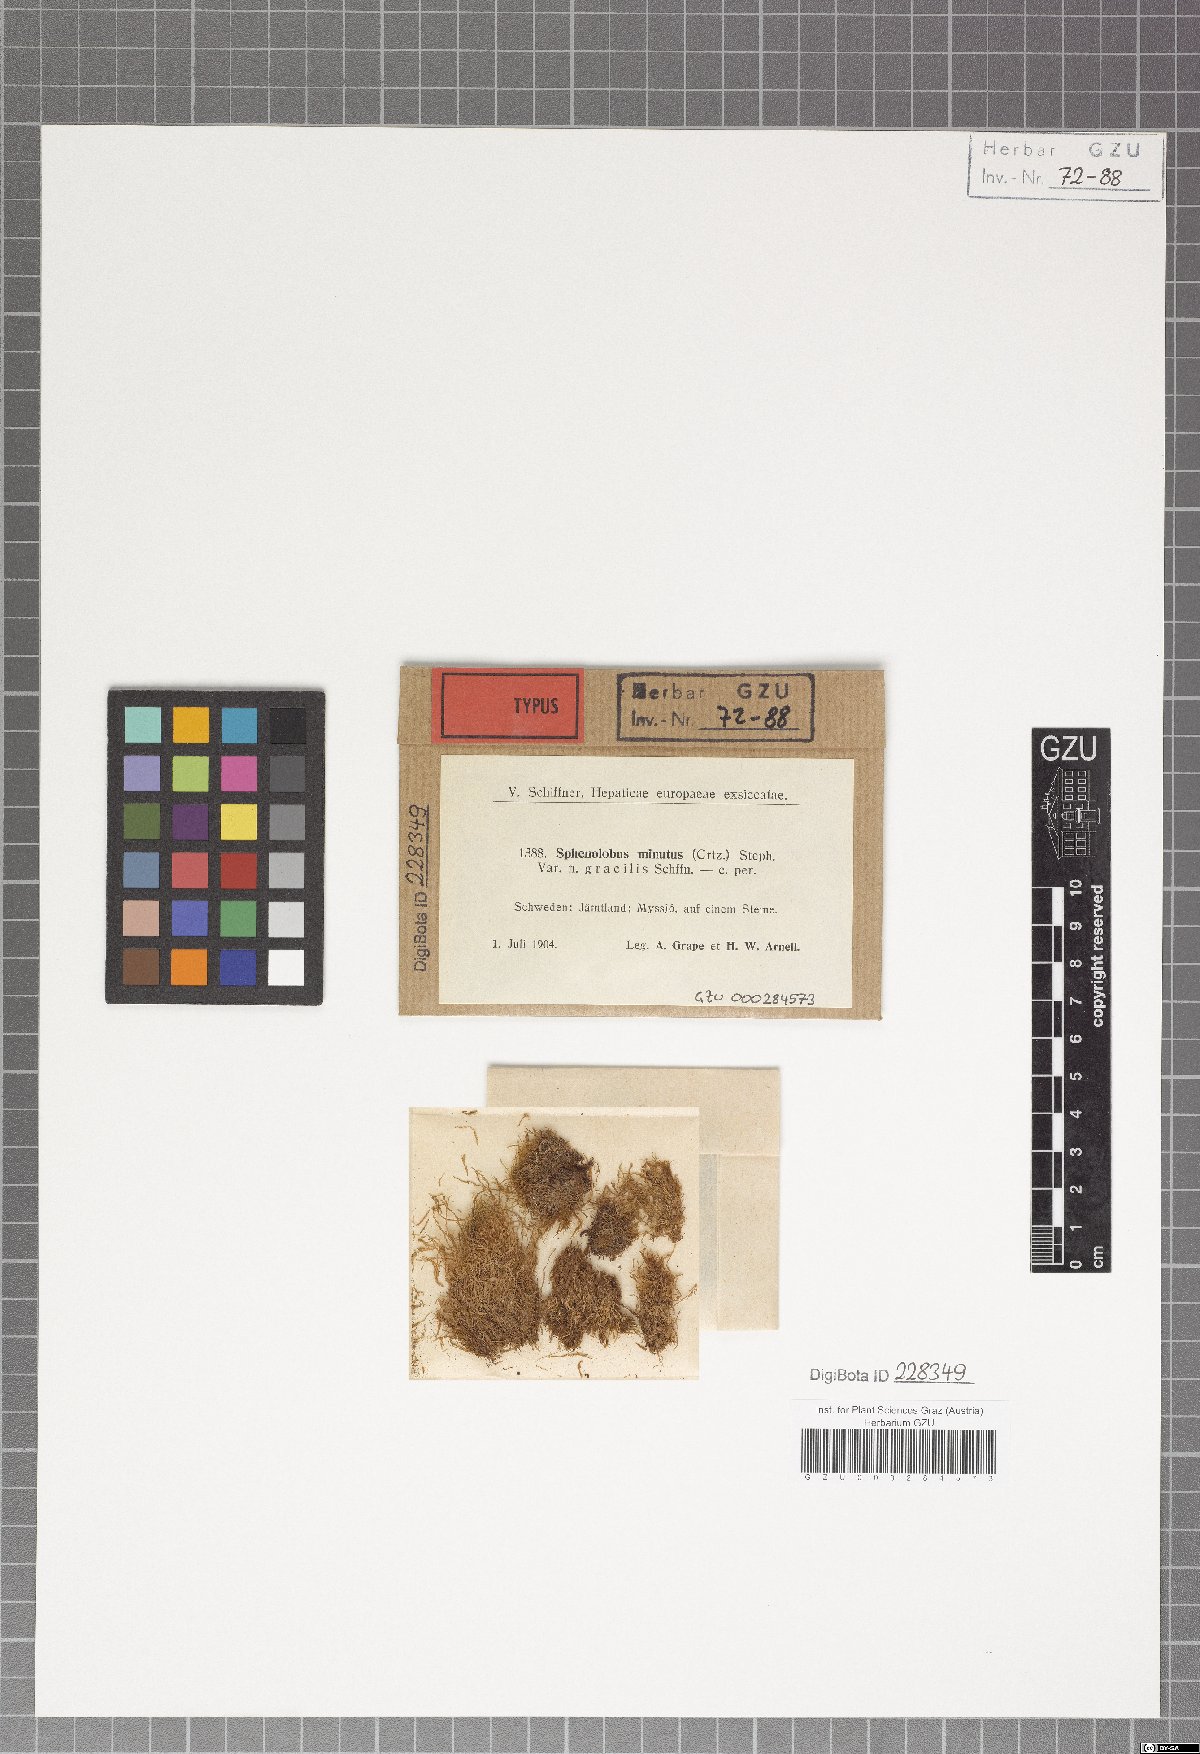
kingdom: Plantae
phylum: Marchantiophyta
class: Jungermanniopsida
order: Jungermanniales
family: Anastrophyllaceae
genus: Sphenolobus
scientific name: Sphenolobus minutus
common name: Comb notchwort
